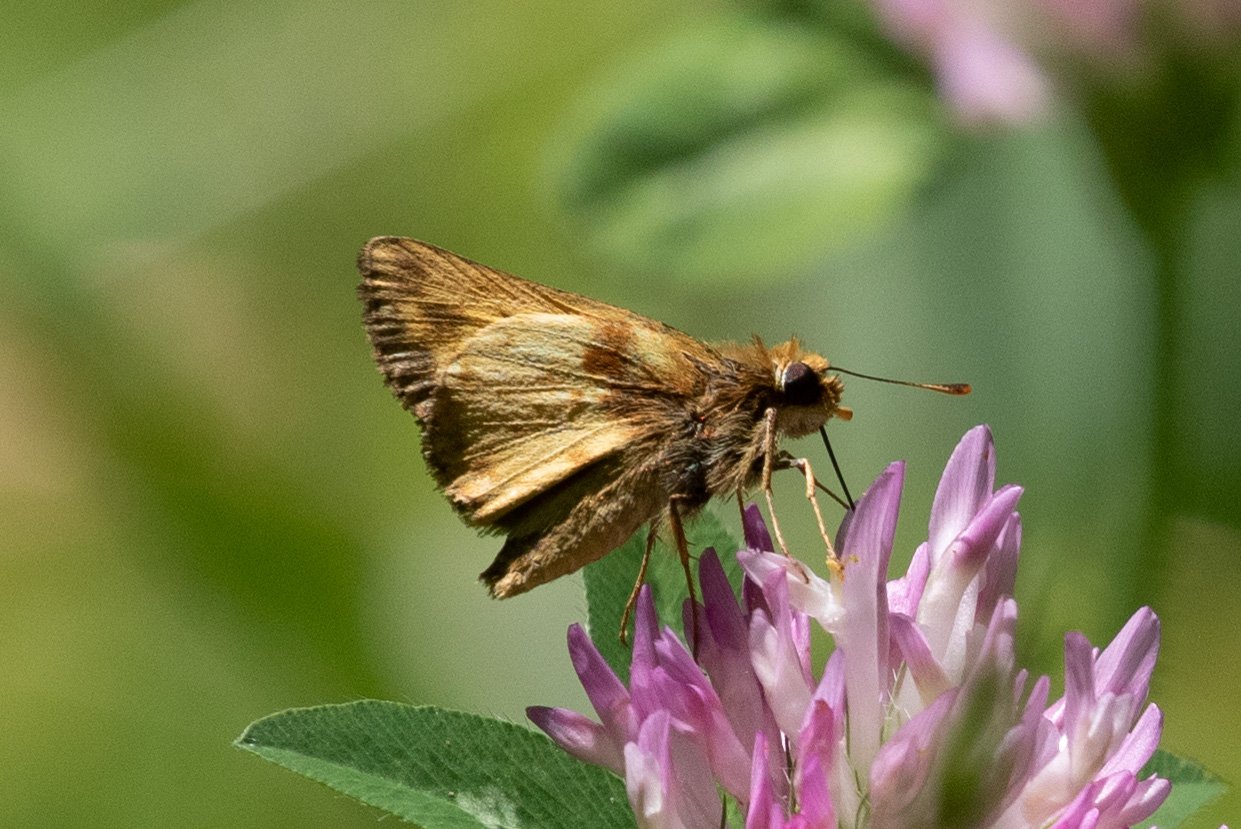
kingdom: Animalia
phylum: Arthropoda
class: Insecta
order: Lepidoptera
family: Hesperiidae
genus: Lon
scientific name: Lon zabulon
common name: Zabulon Skipper
